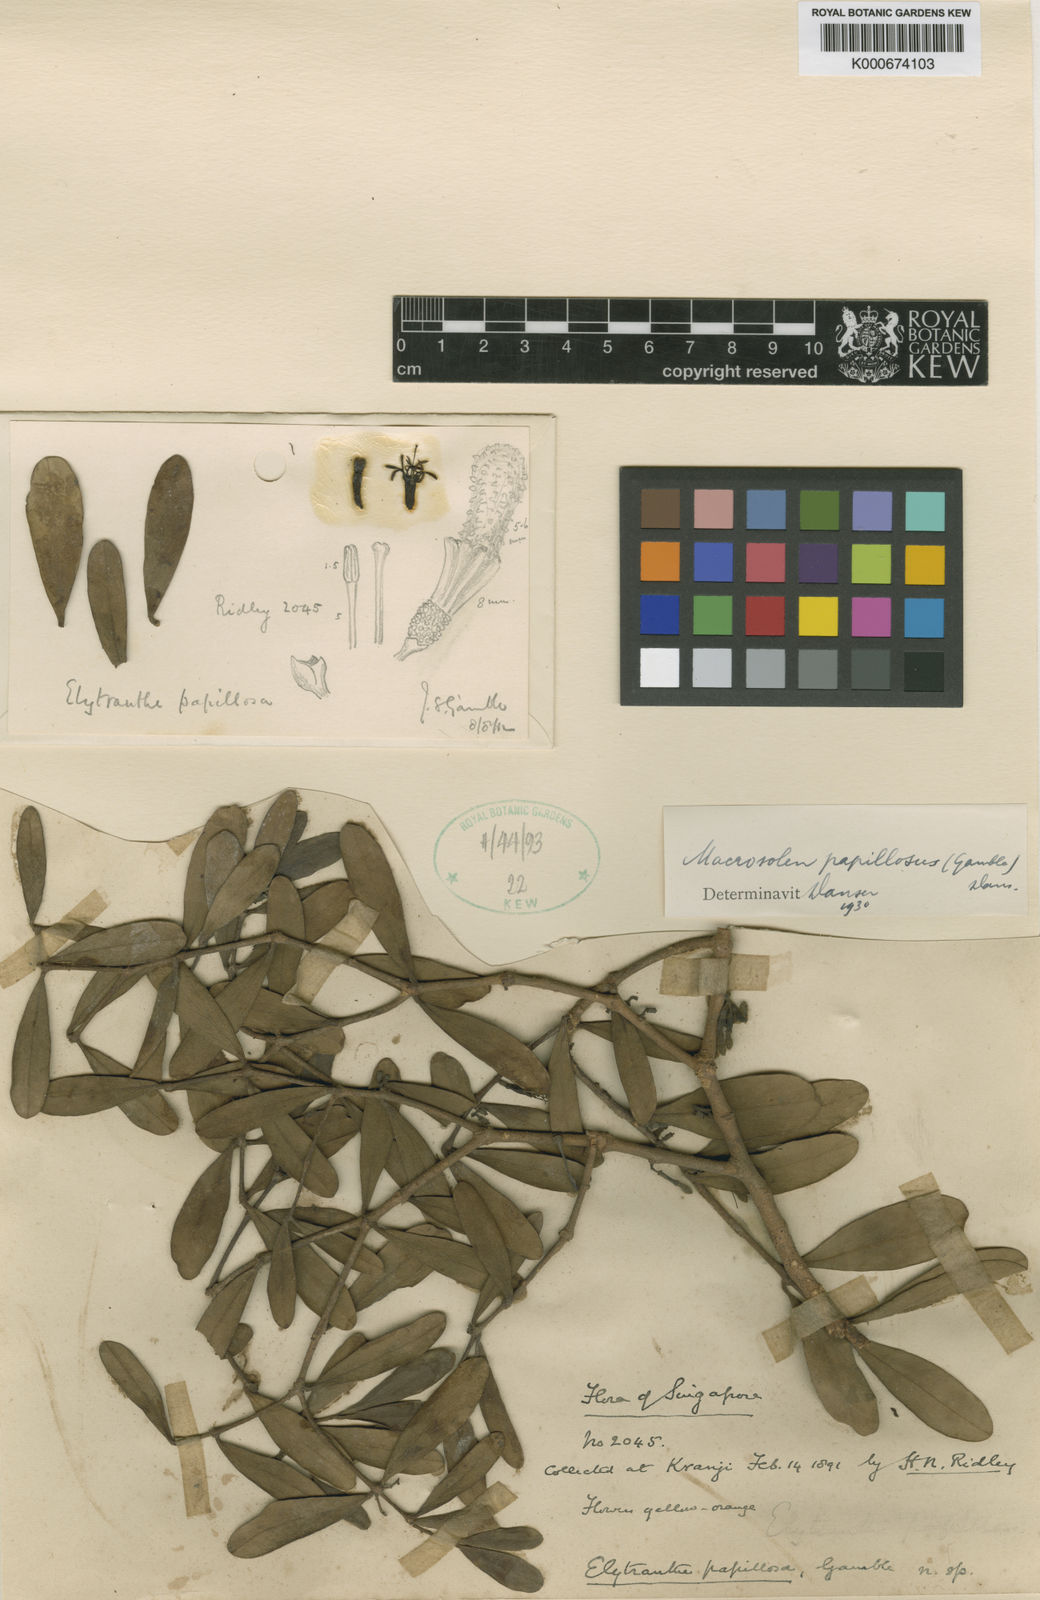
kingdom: Plantae
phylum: Tracheophyta
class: Magnoliopsida
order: Santalales
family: Loranthaceae
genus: Macrosolen
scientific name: Macrosolen papillosus
